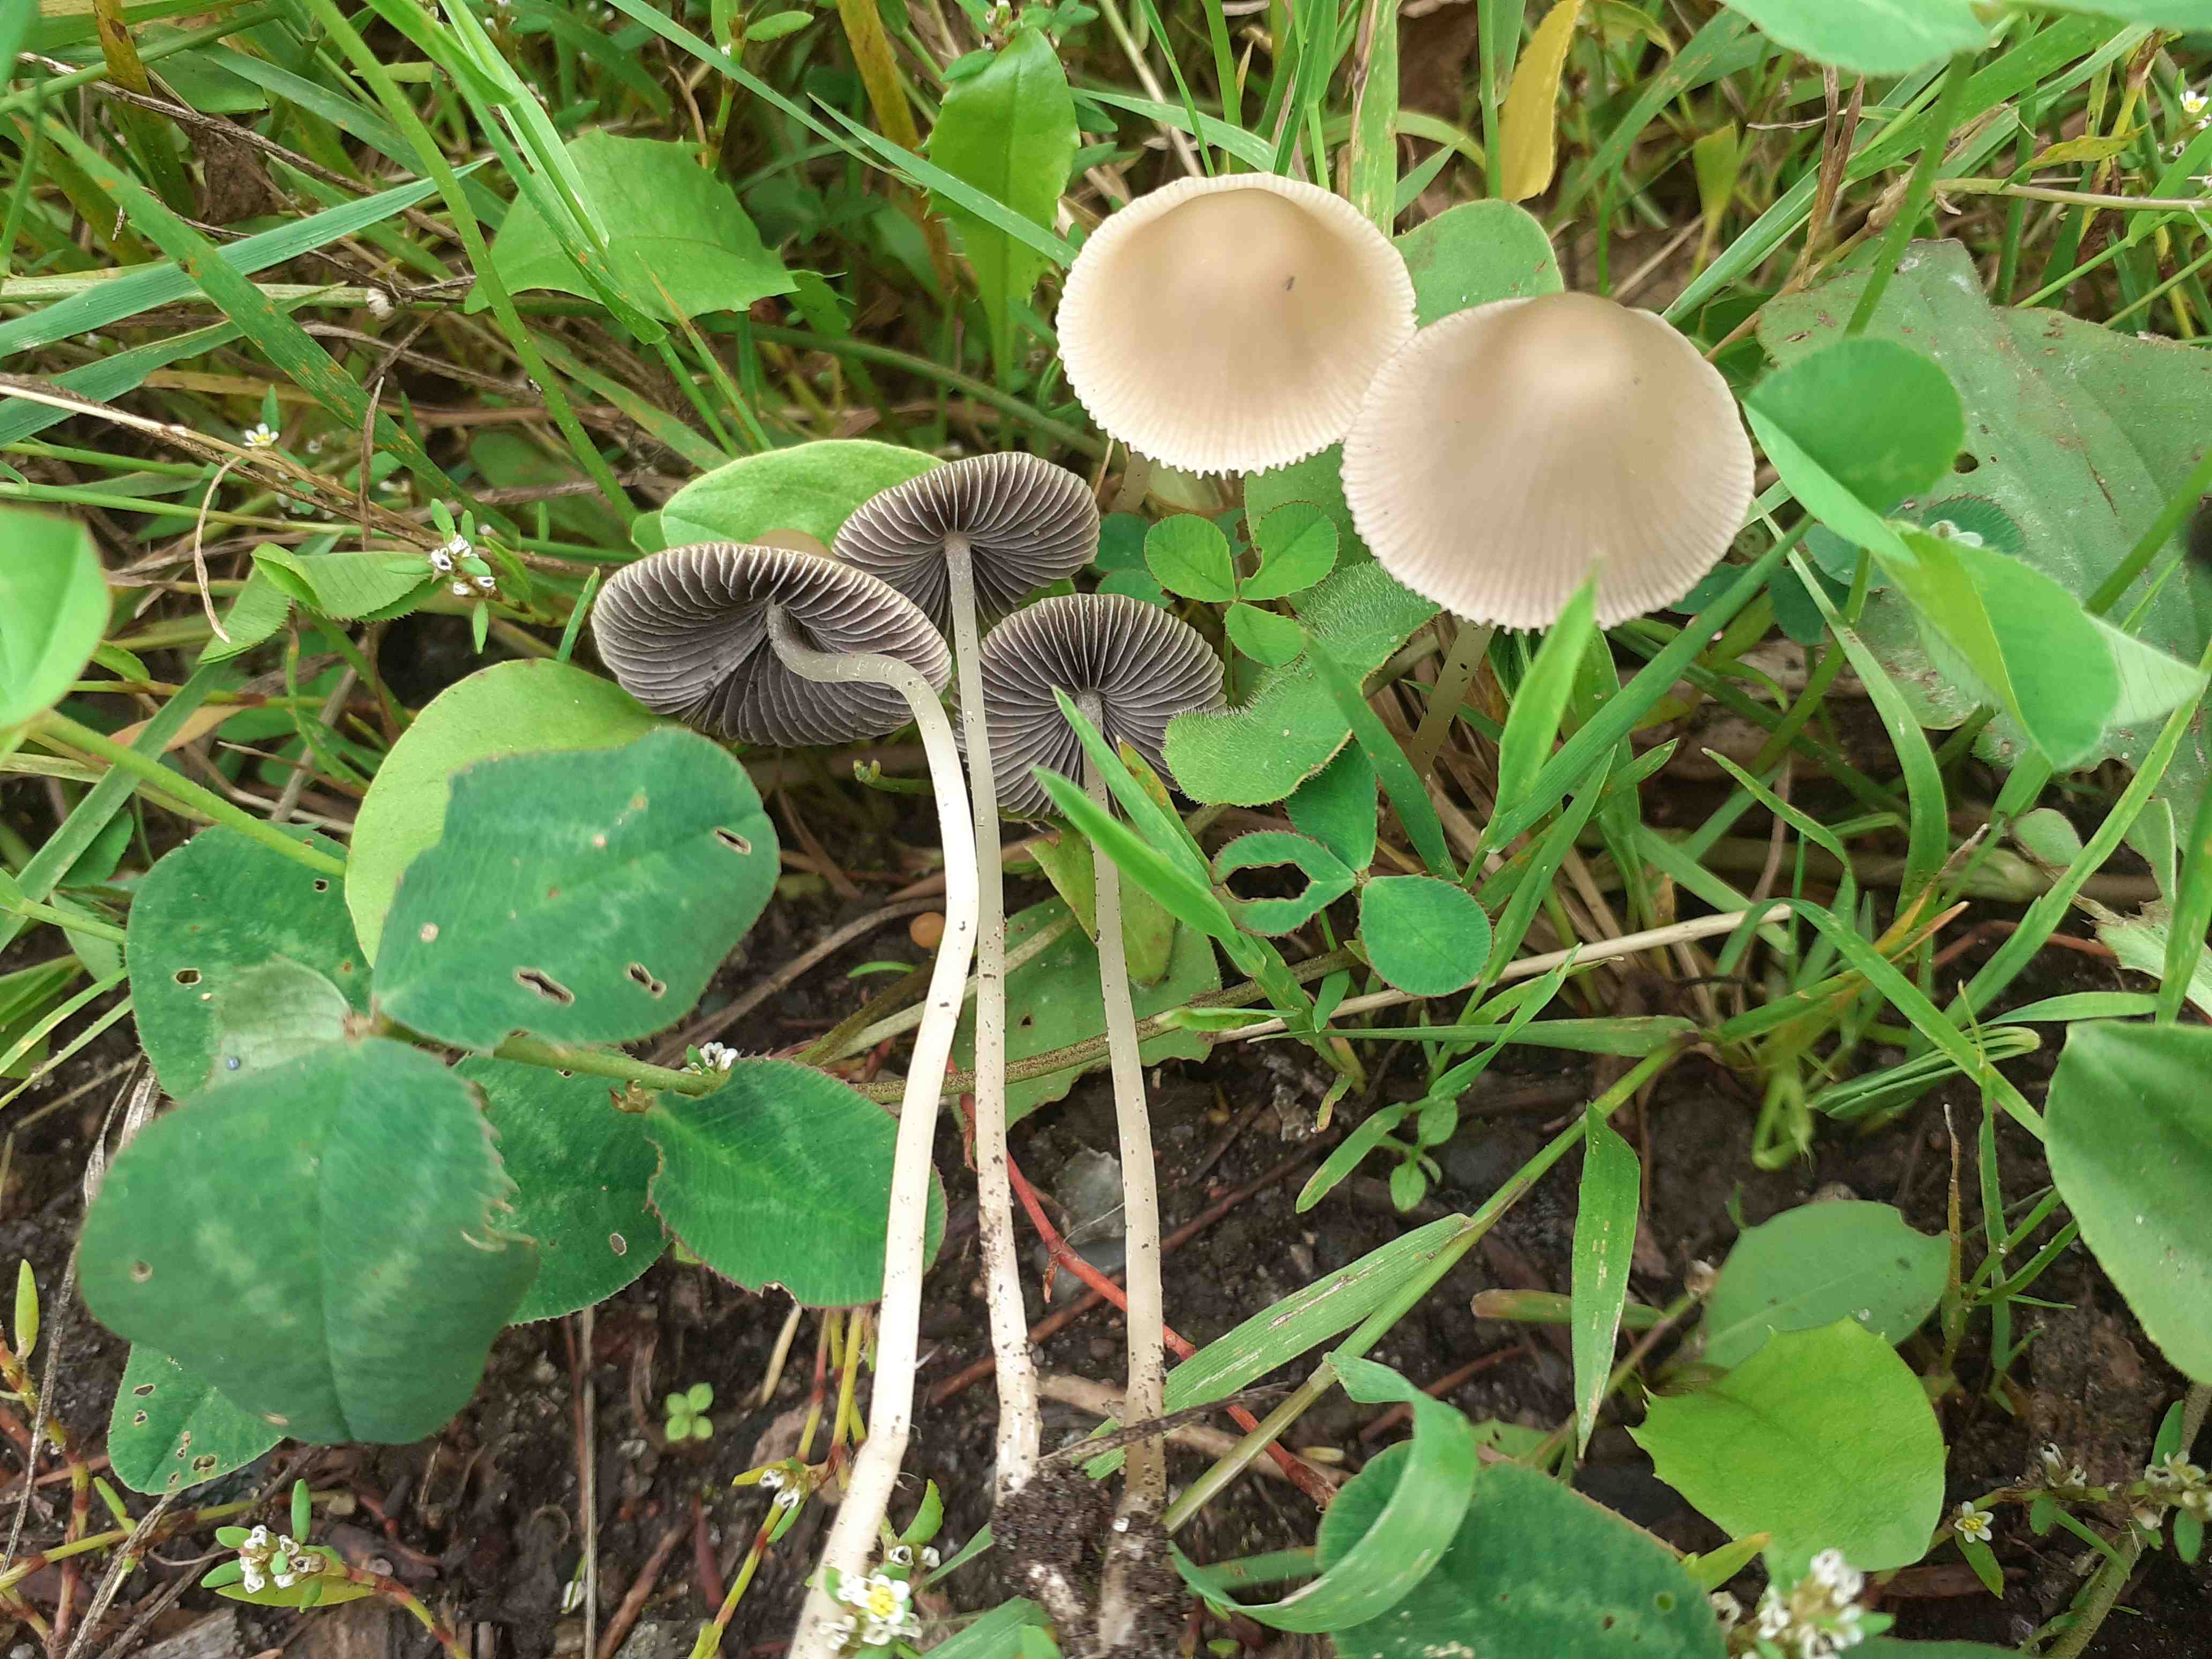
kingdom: Fungi
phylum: Basidiomycota
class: Agaricomycetes
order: Agaricales
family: Psathyrellaceae
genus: Psathyrella
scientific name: Psathyrella pseudogracilis
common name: slank mørkhat
